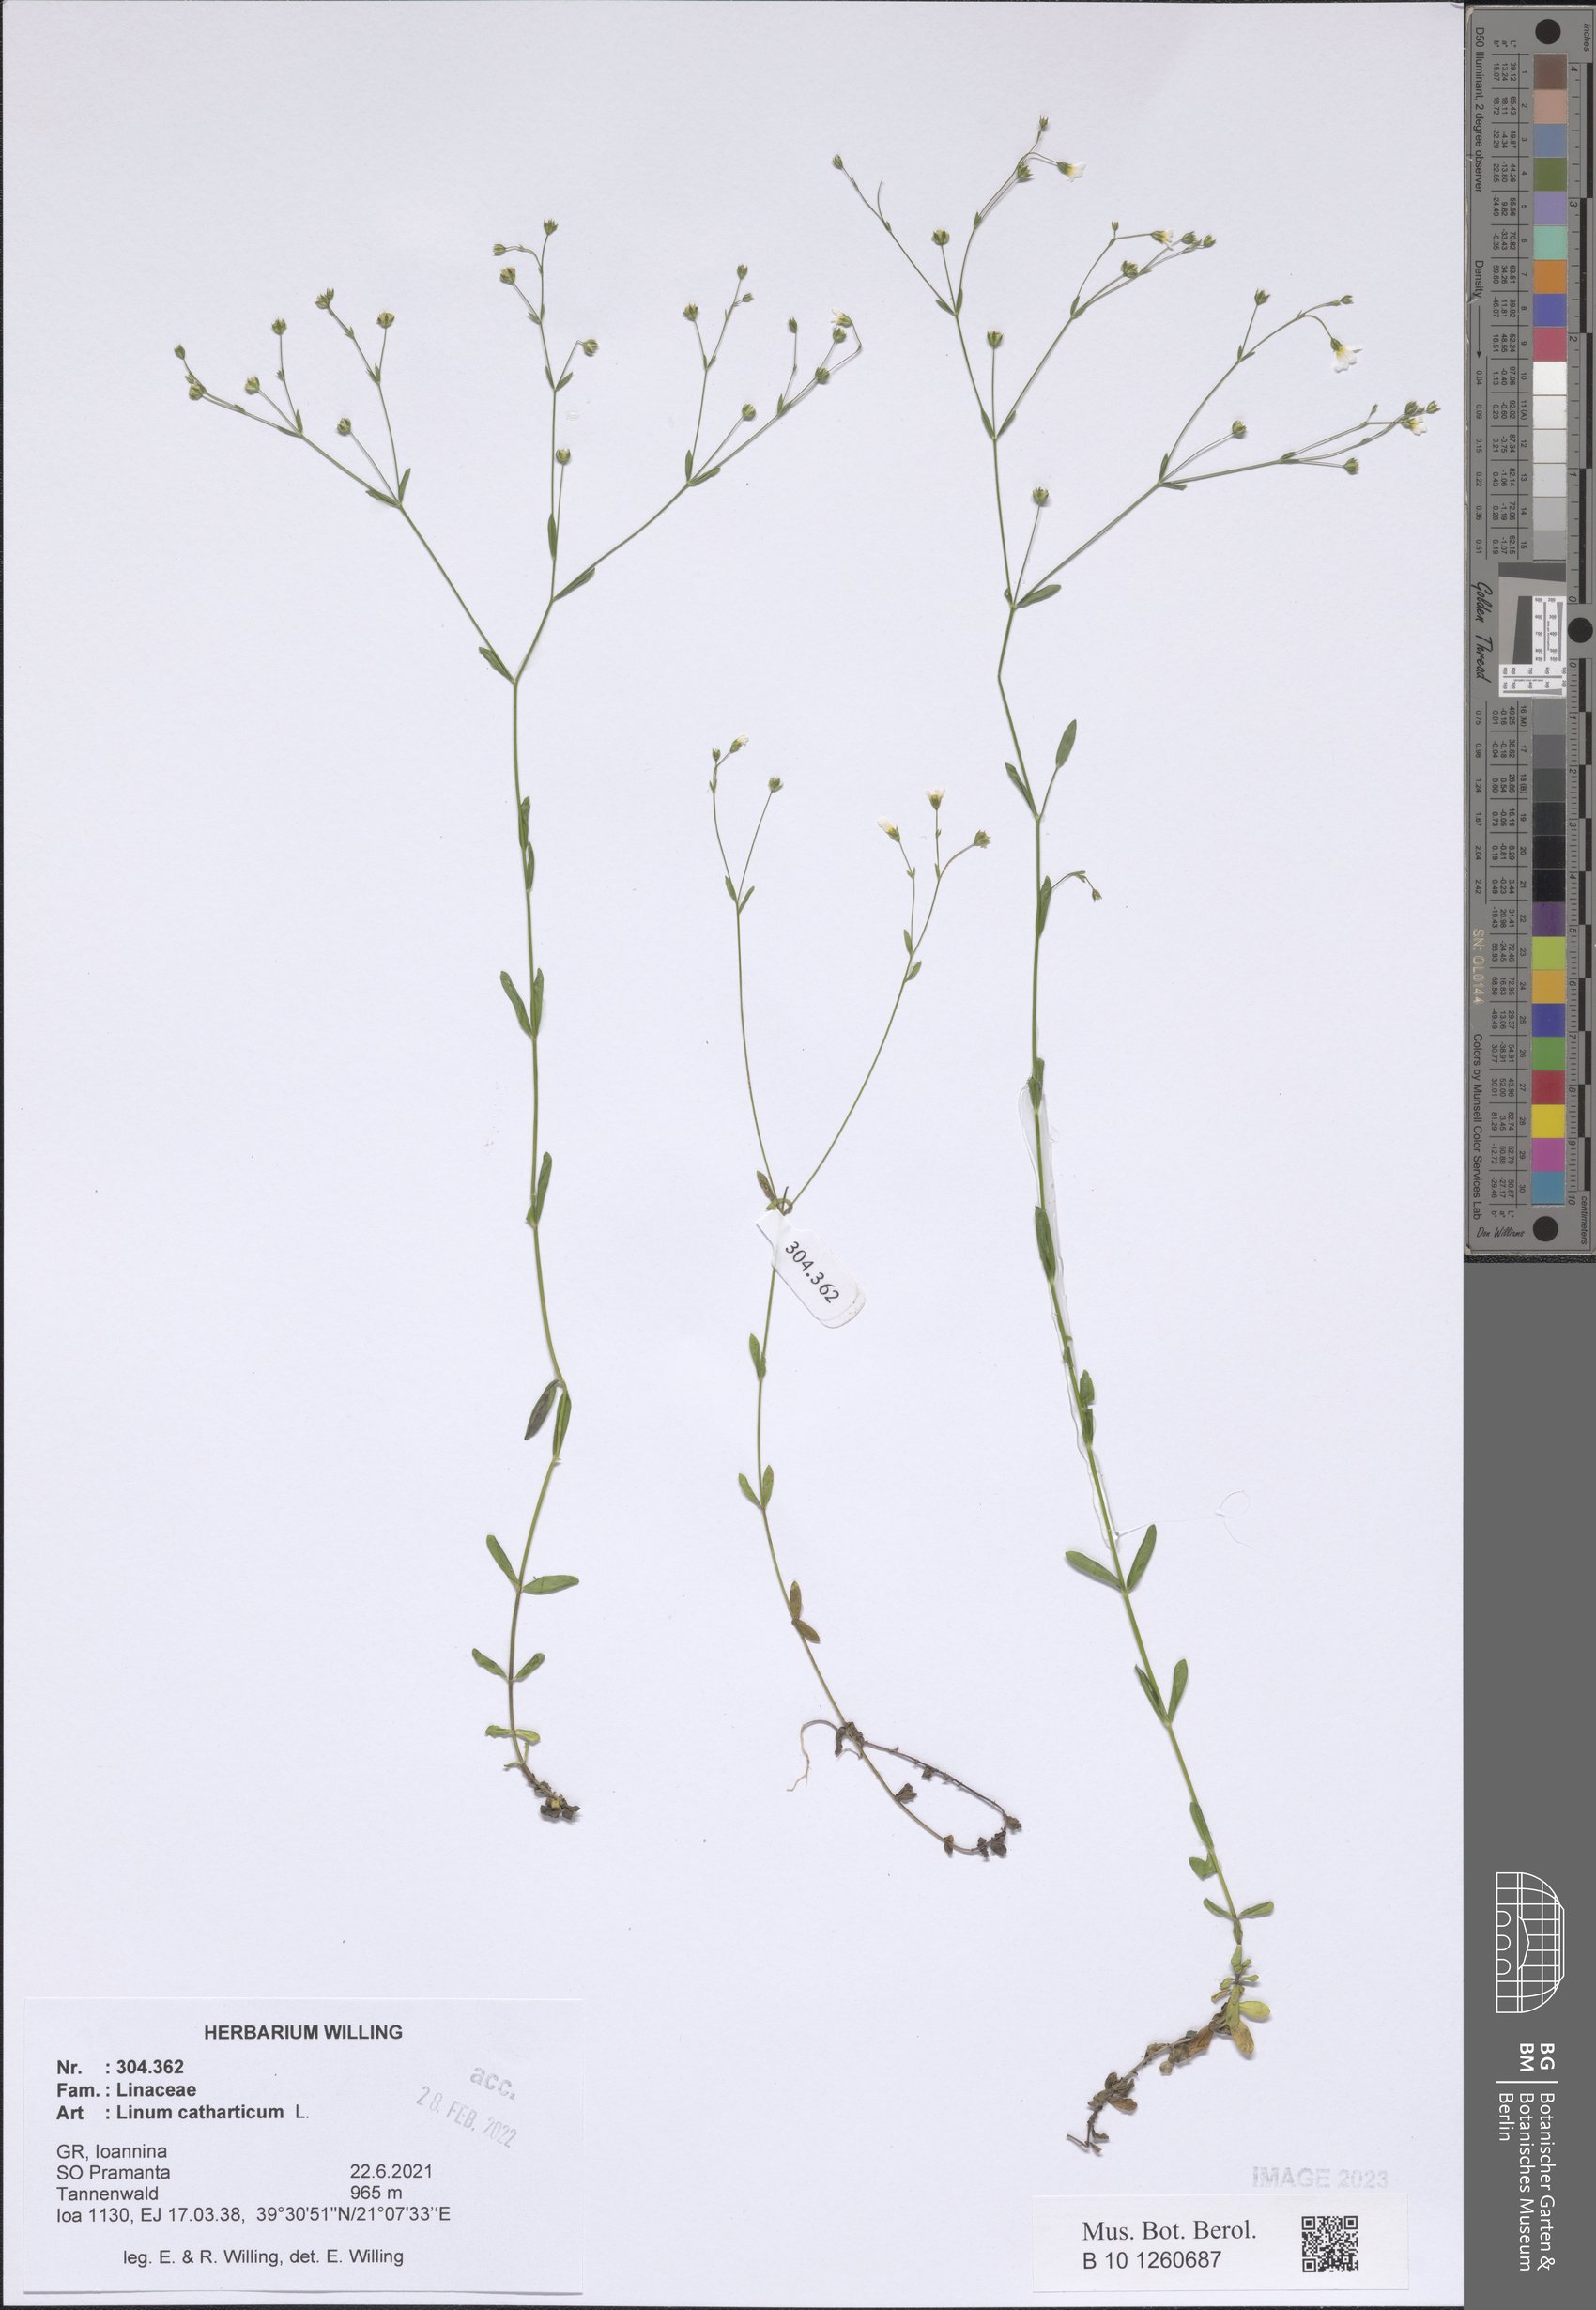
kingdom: Plantae
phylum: Tracheophyta
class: Magnoliopsida
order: Malpighiales
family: Linaceae
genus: Linum
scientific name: Linum catharticum
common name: Fairy flax
